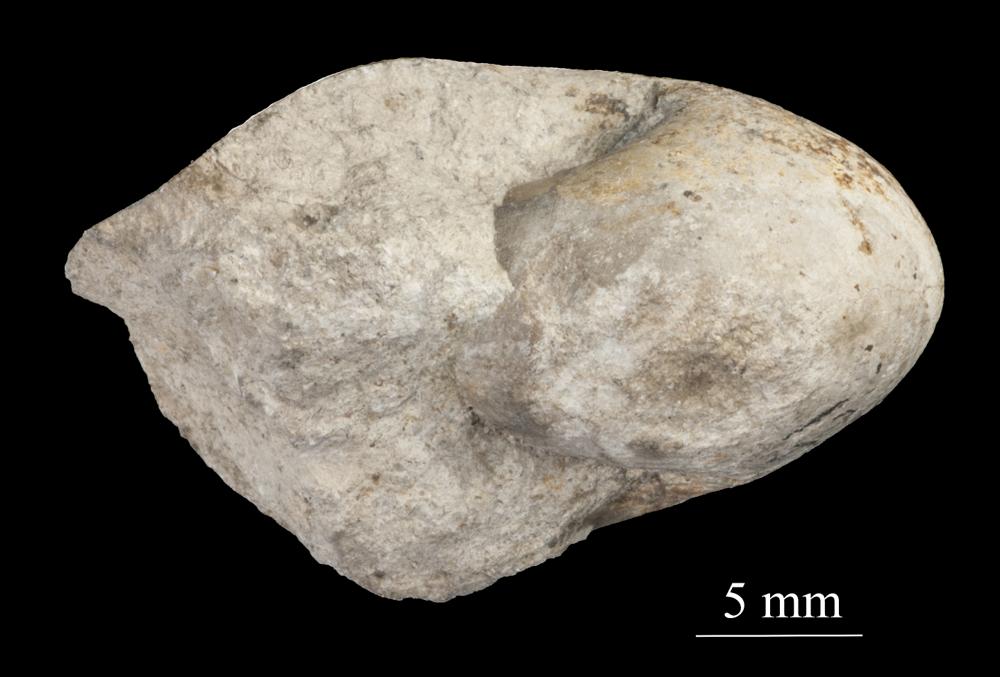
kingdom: Animalia
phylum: Mollusca
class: Gastropoda
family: Sinuitidae
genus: Sinuites
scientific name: Sinuites bilobatus
